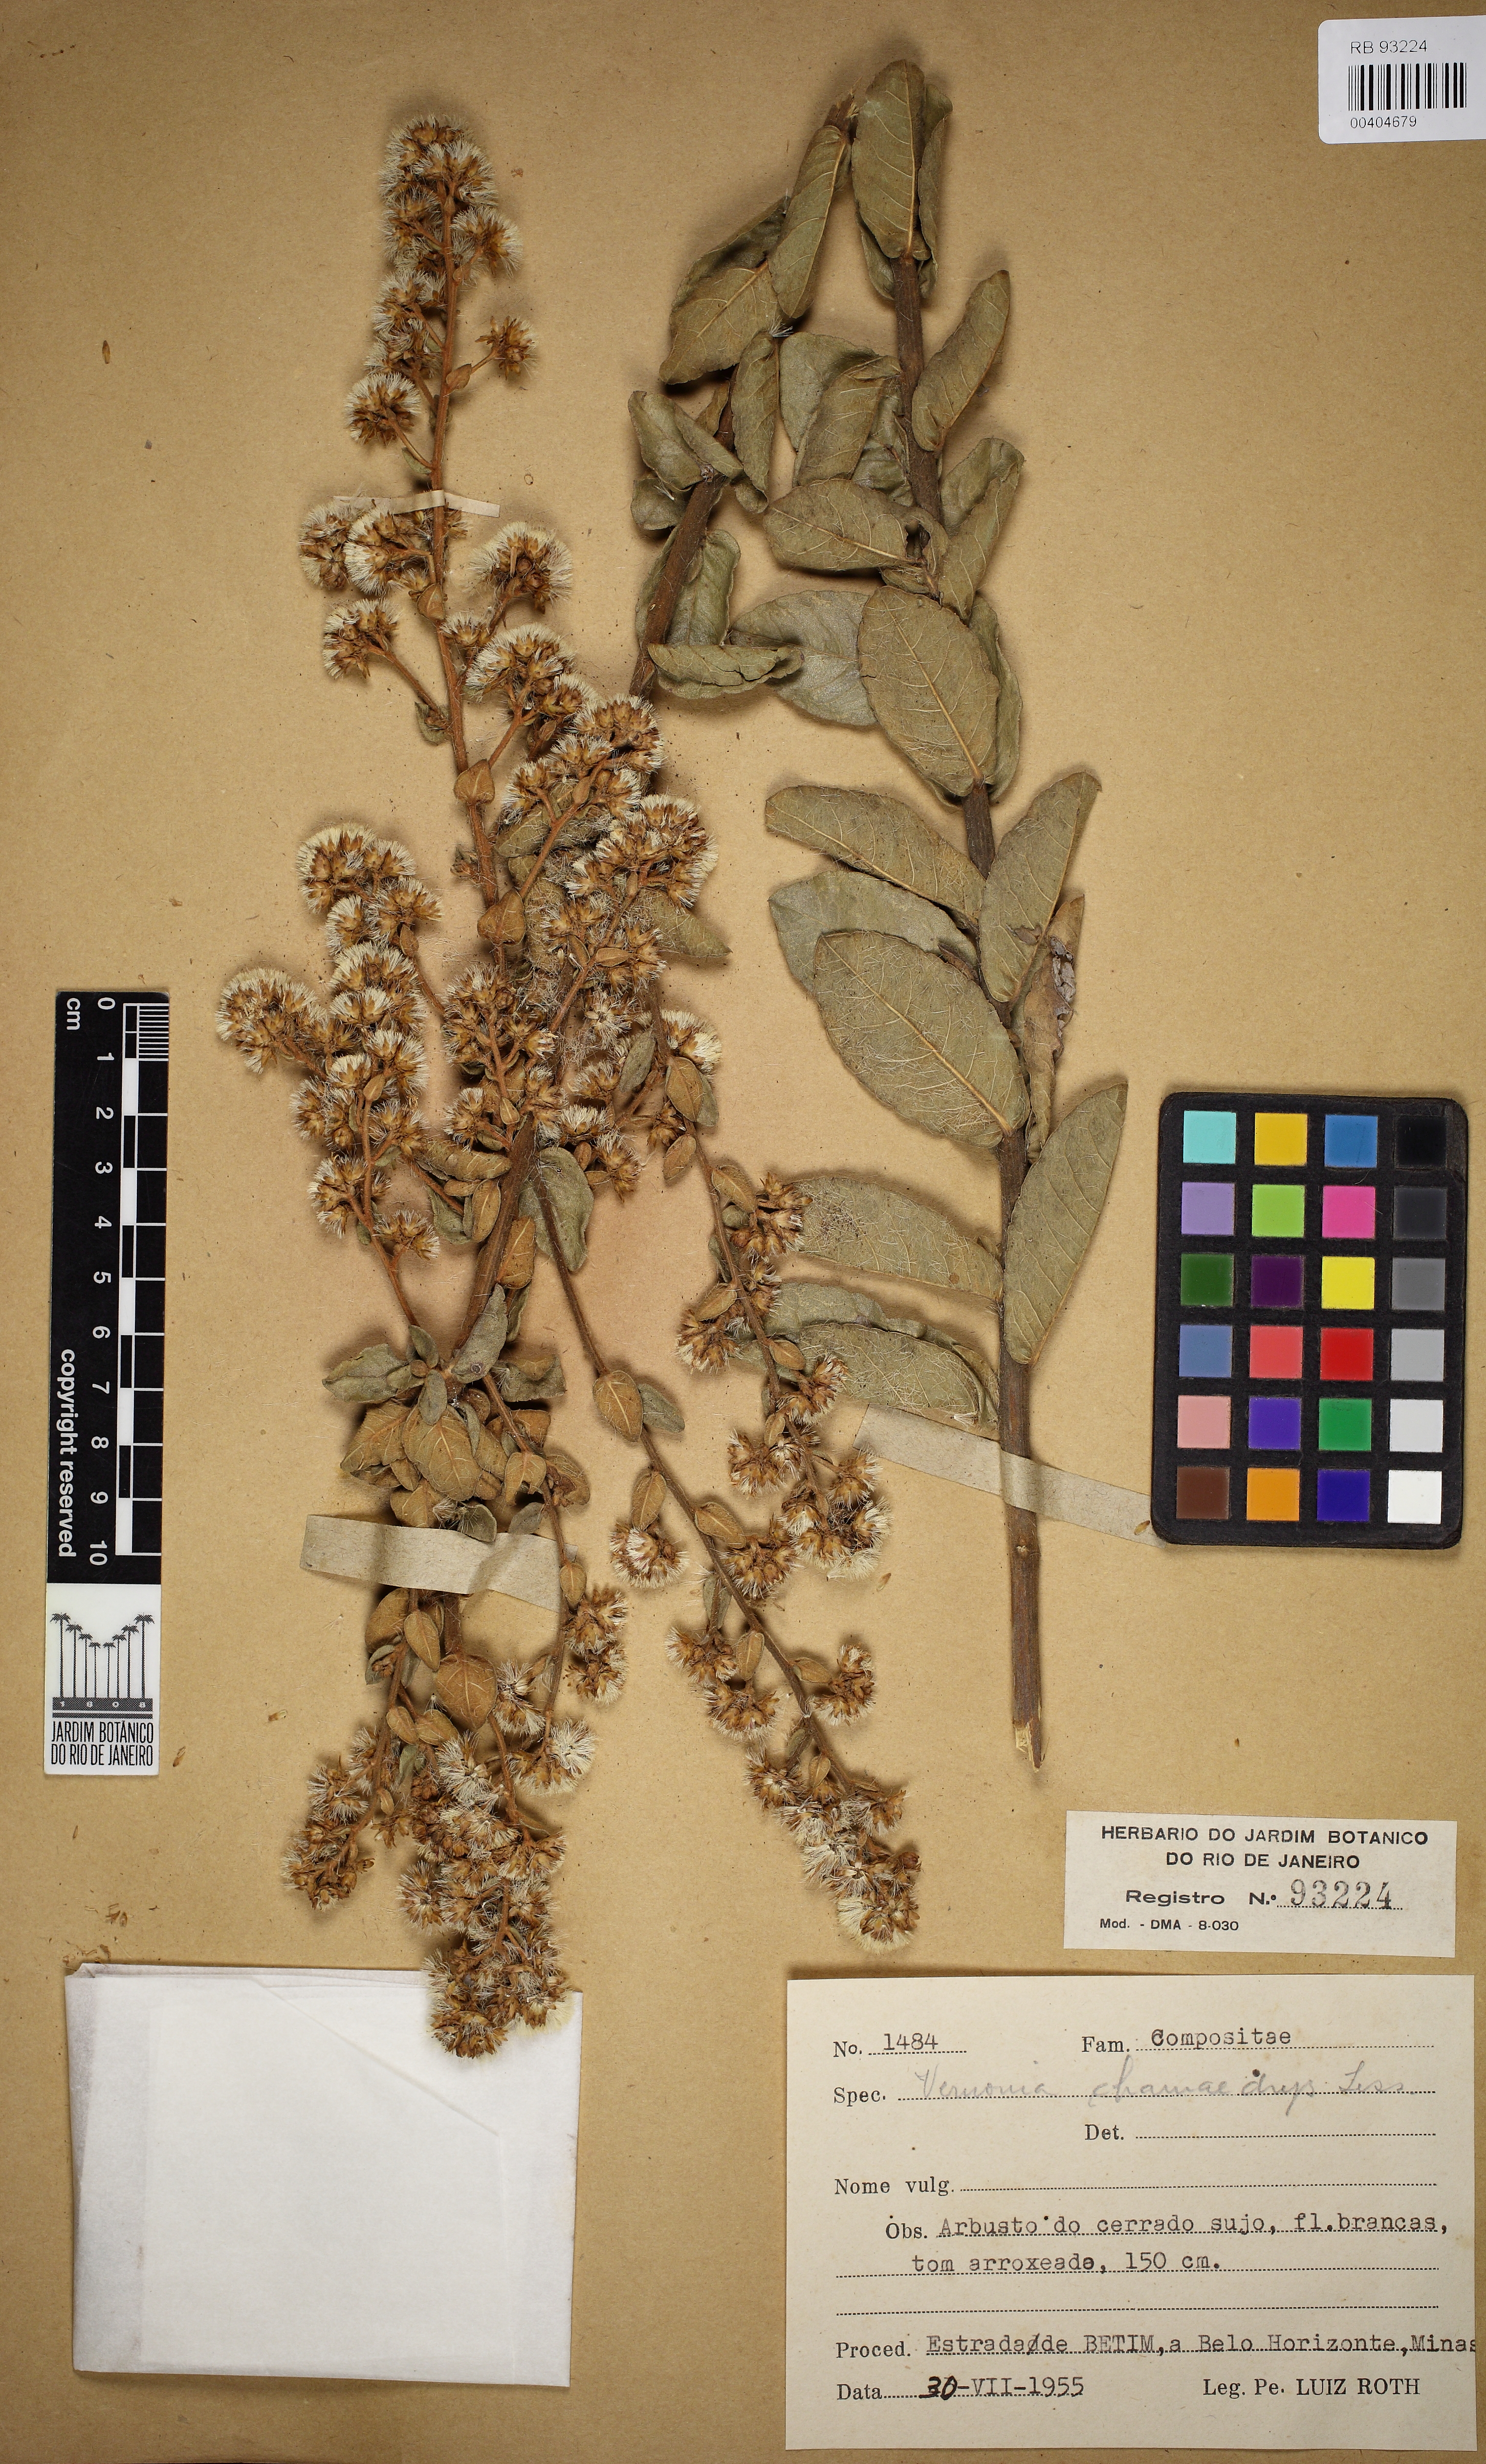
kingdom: Plantae
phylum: Tracheophyta
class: Magnoliopsida
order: Asterales
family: Asteraceae
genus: Vernonanthura
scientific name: Vernonanthura chamaedrys
